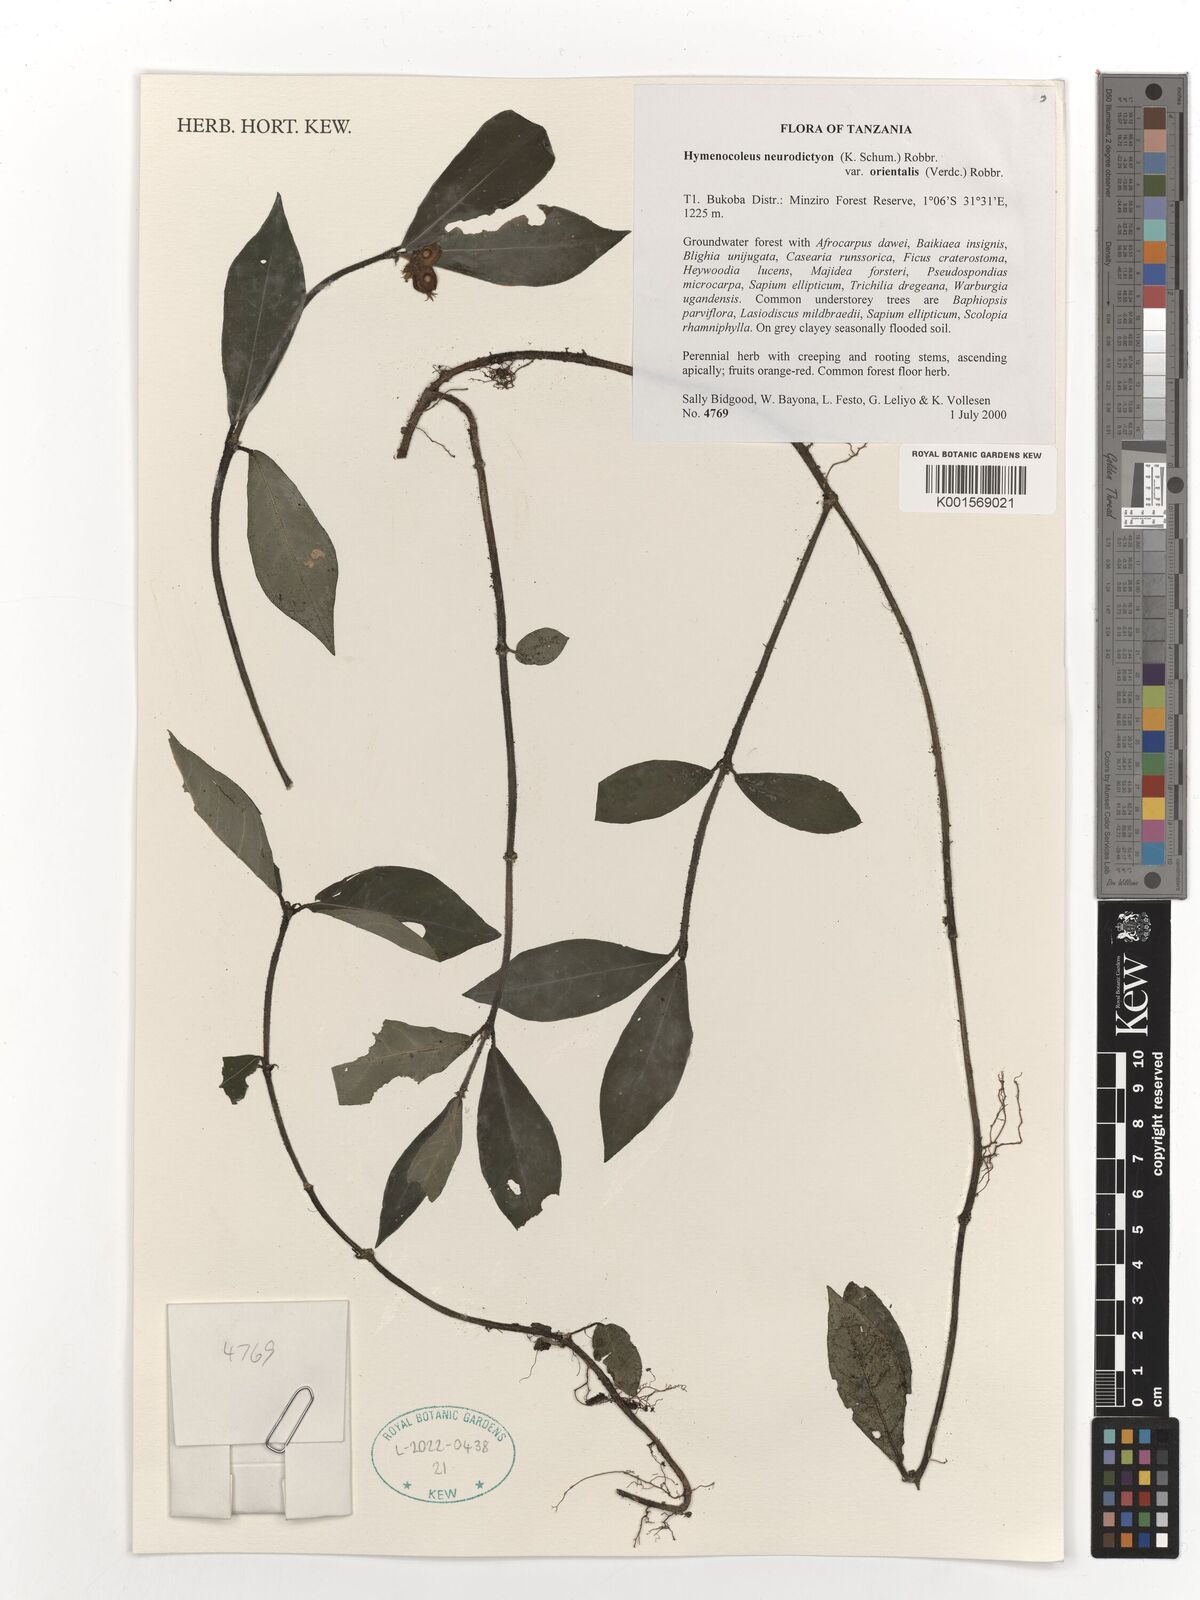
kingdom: Plantae
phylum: Tracheophyta
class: Magnoliopsida
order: Gentianales
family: Rubiaceae
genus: Hymenocoleus
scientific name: Hymenocoleus neurodictyon
